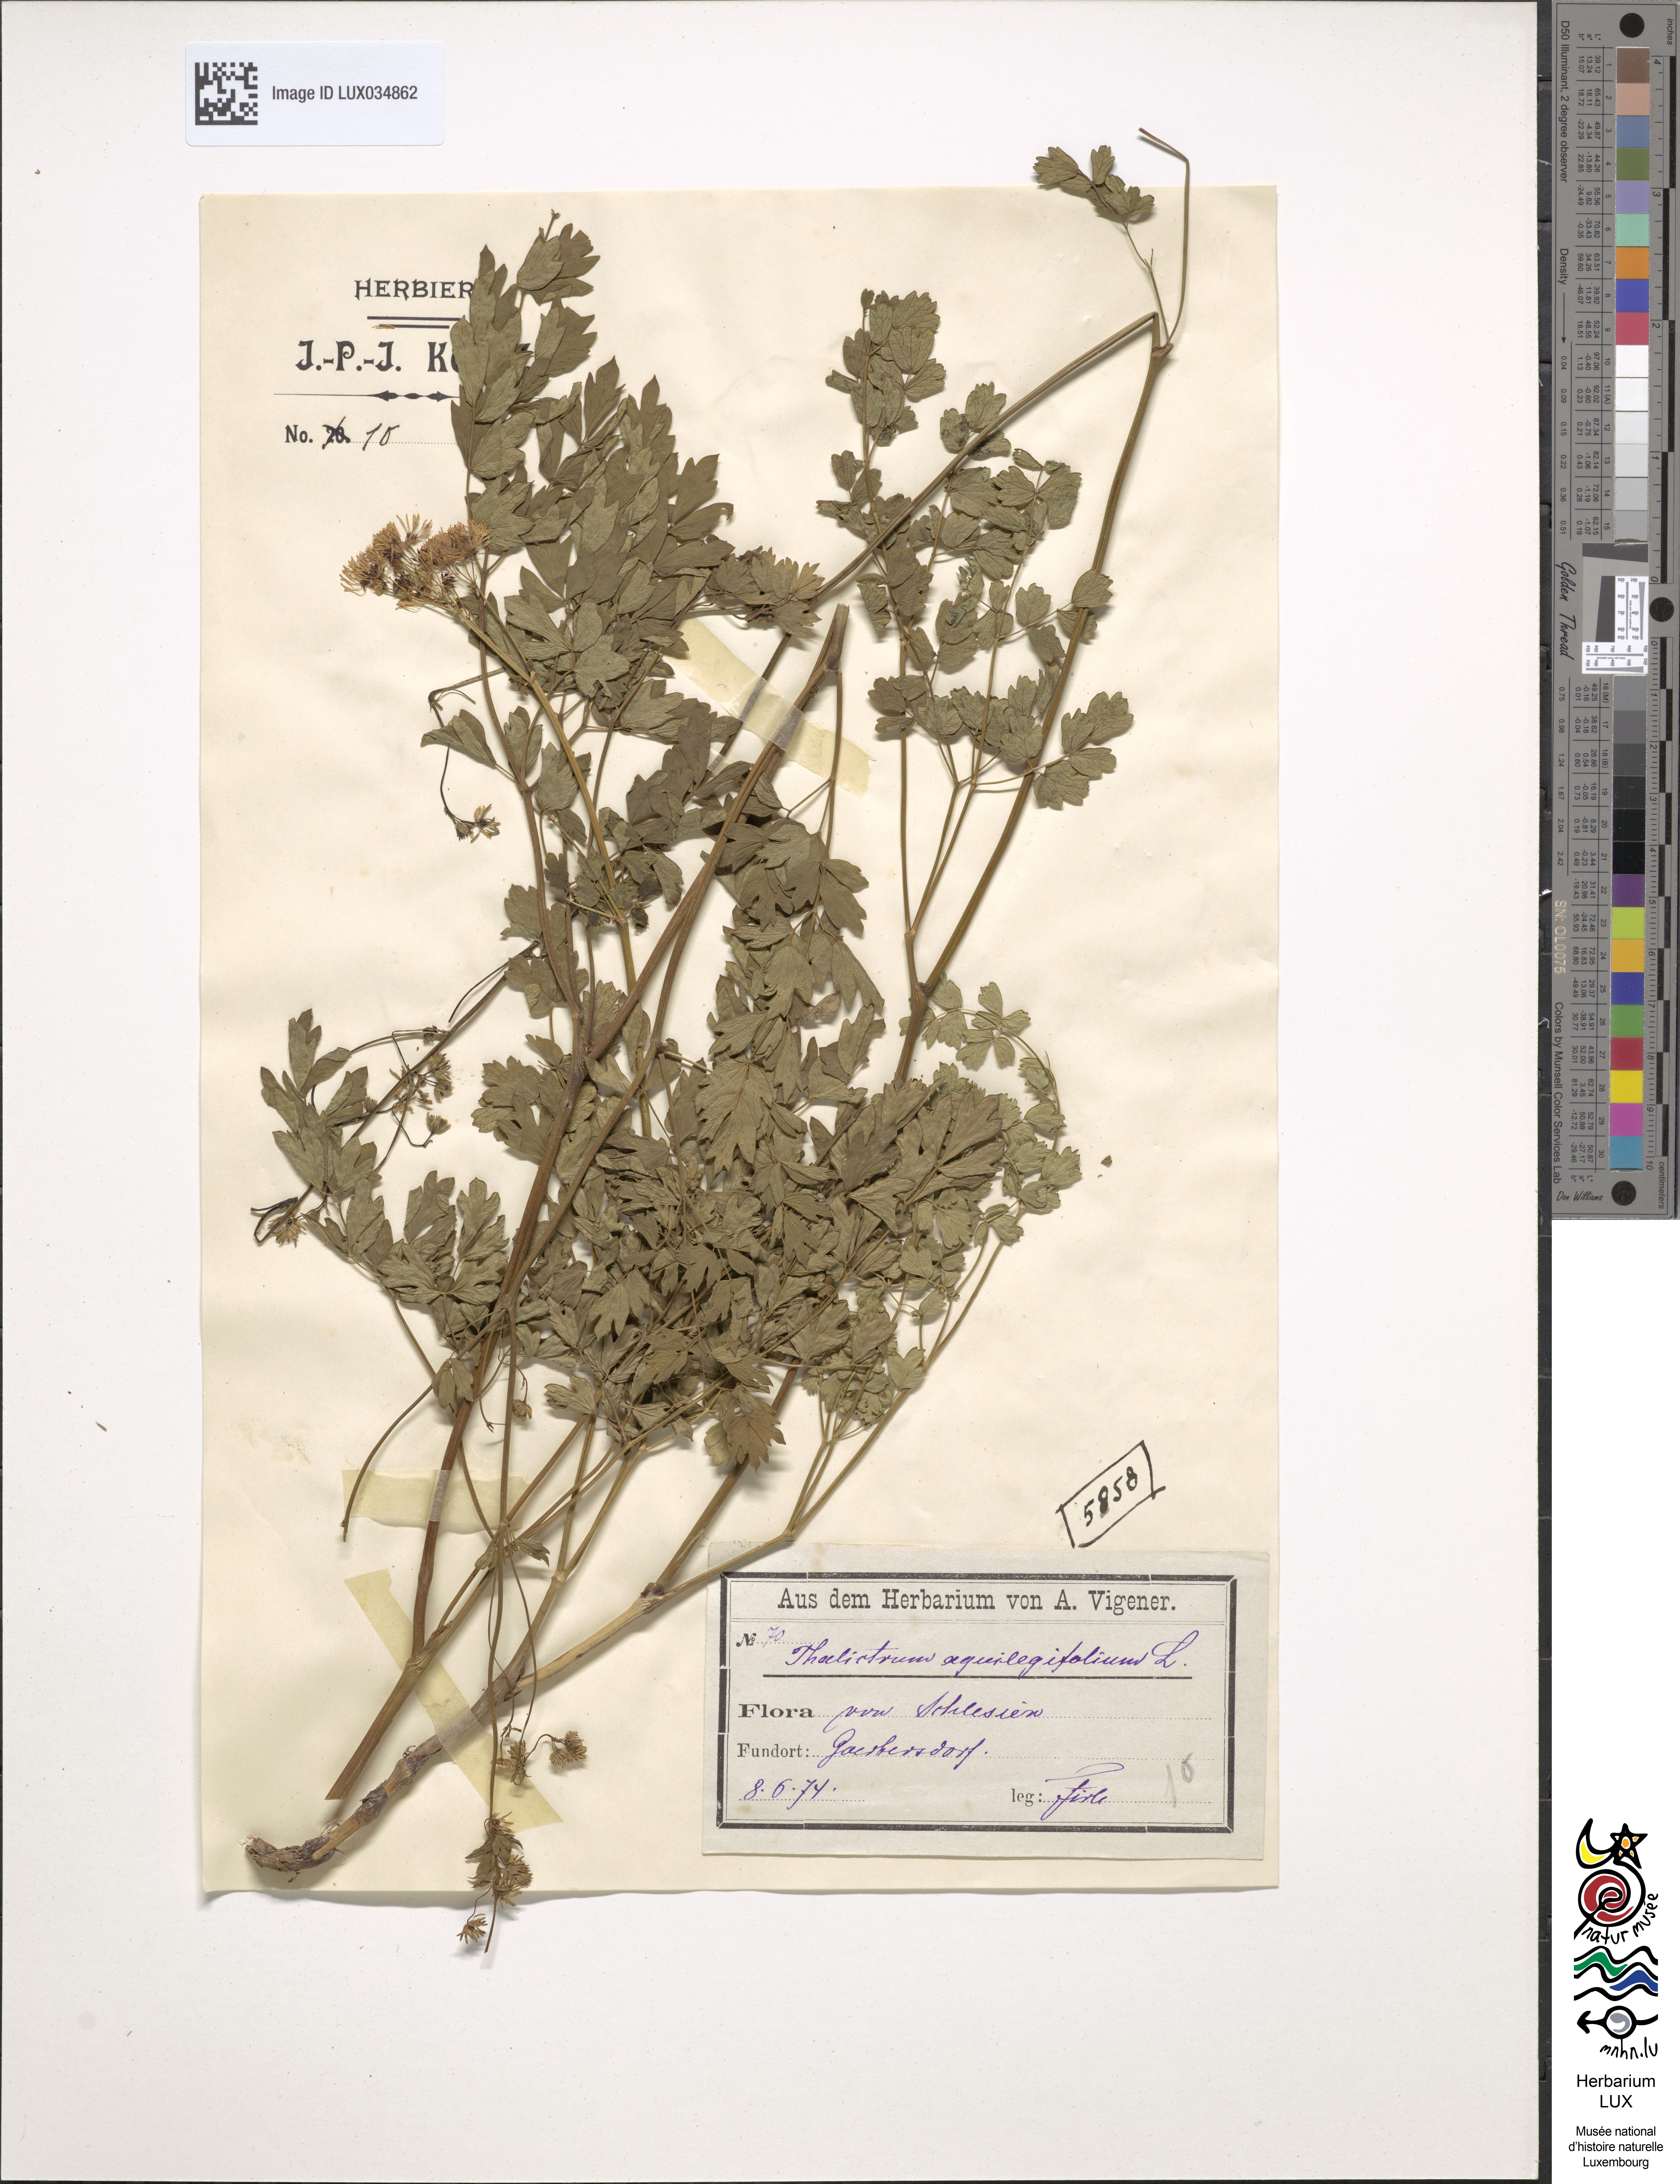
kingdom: Plantae
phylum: Tracheophyta
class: Magnoliopsida
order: Ranunculales
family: Ranunculaceae
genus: Thalictrum
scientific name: Thalictrum aquilegiifolium
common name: French meadow-rue
